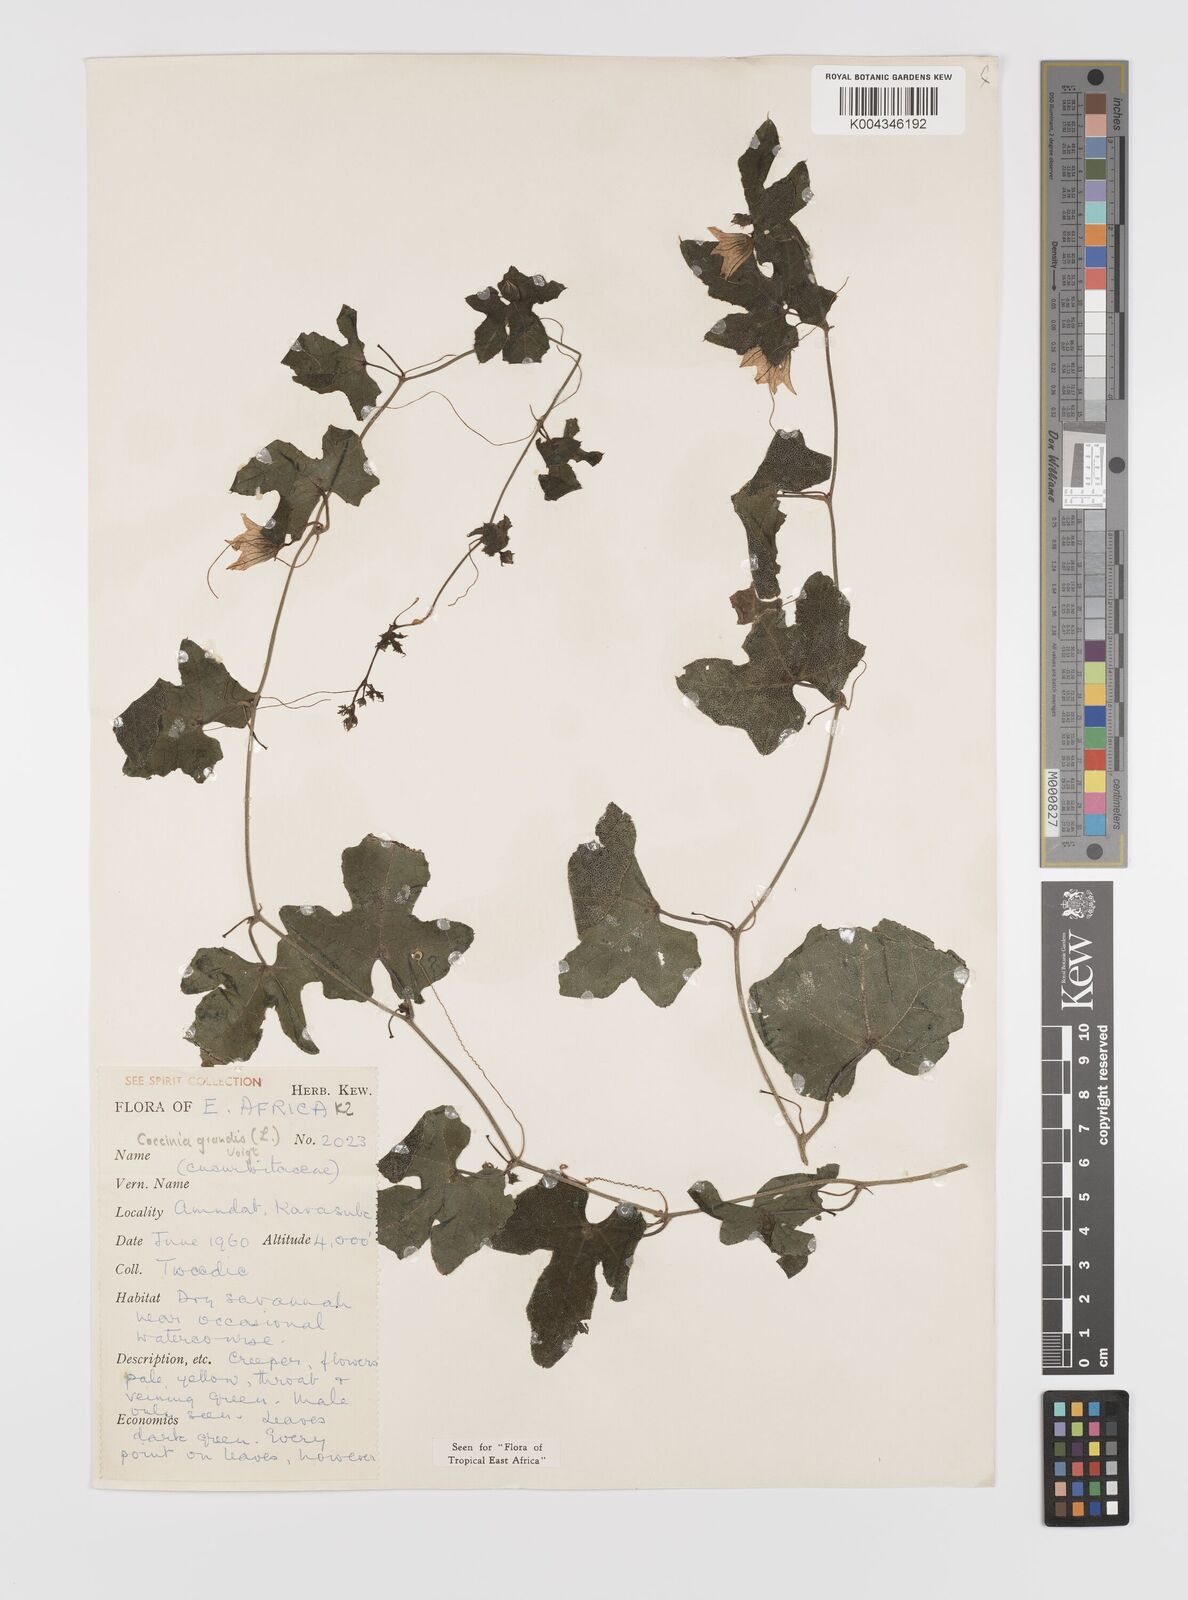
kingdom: Plantae
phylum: Tracheophyta
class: Magnoliopsida
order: Cucurbitales
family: Cucurbitaceae
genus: Coccinia
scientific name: Coccinia grandis
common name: Ivy gourd
